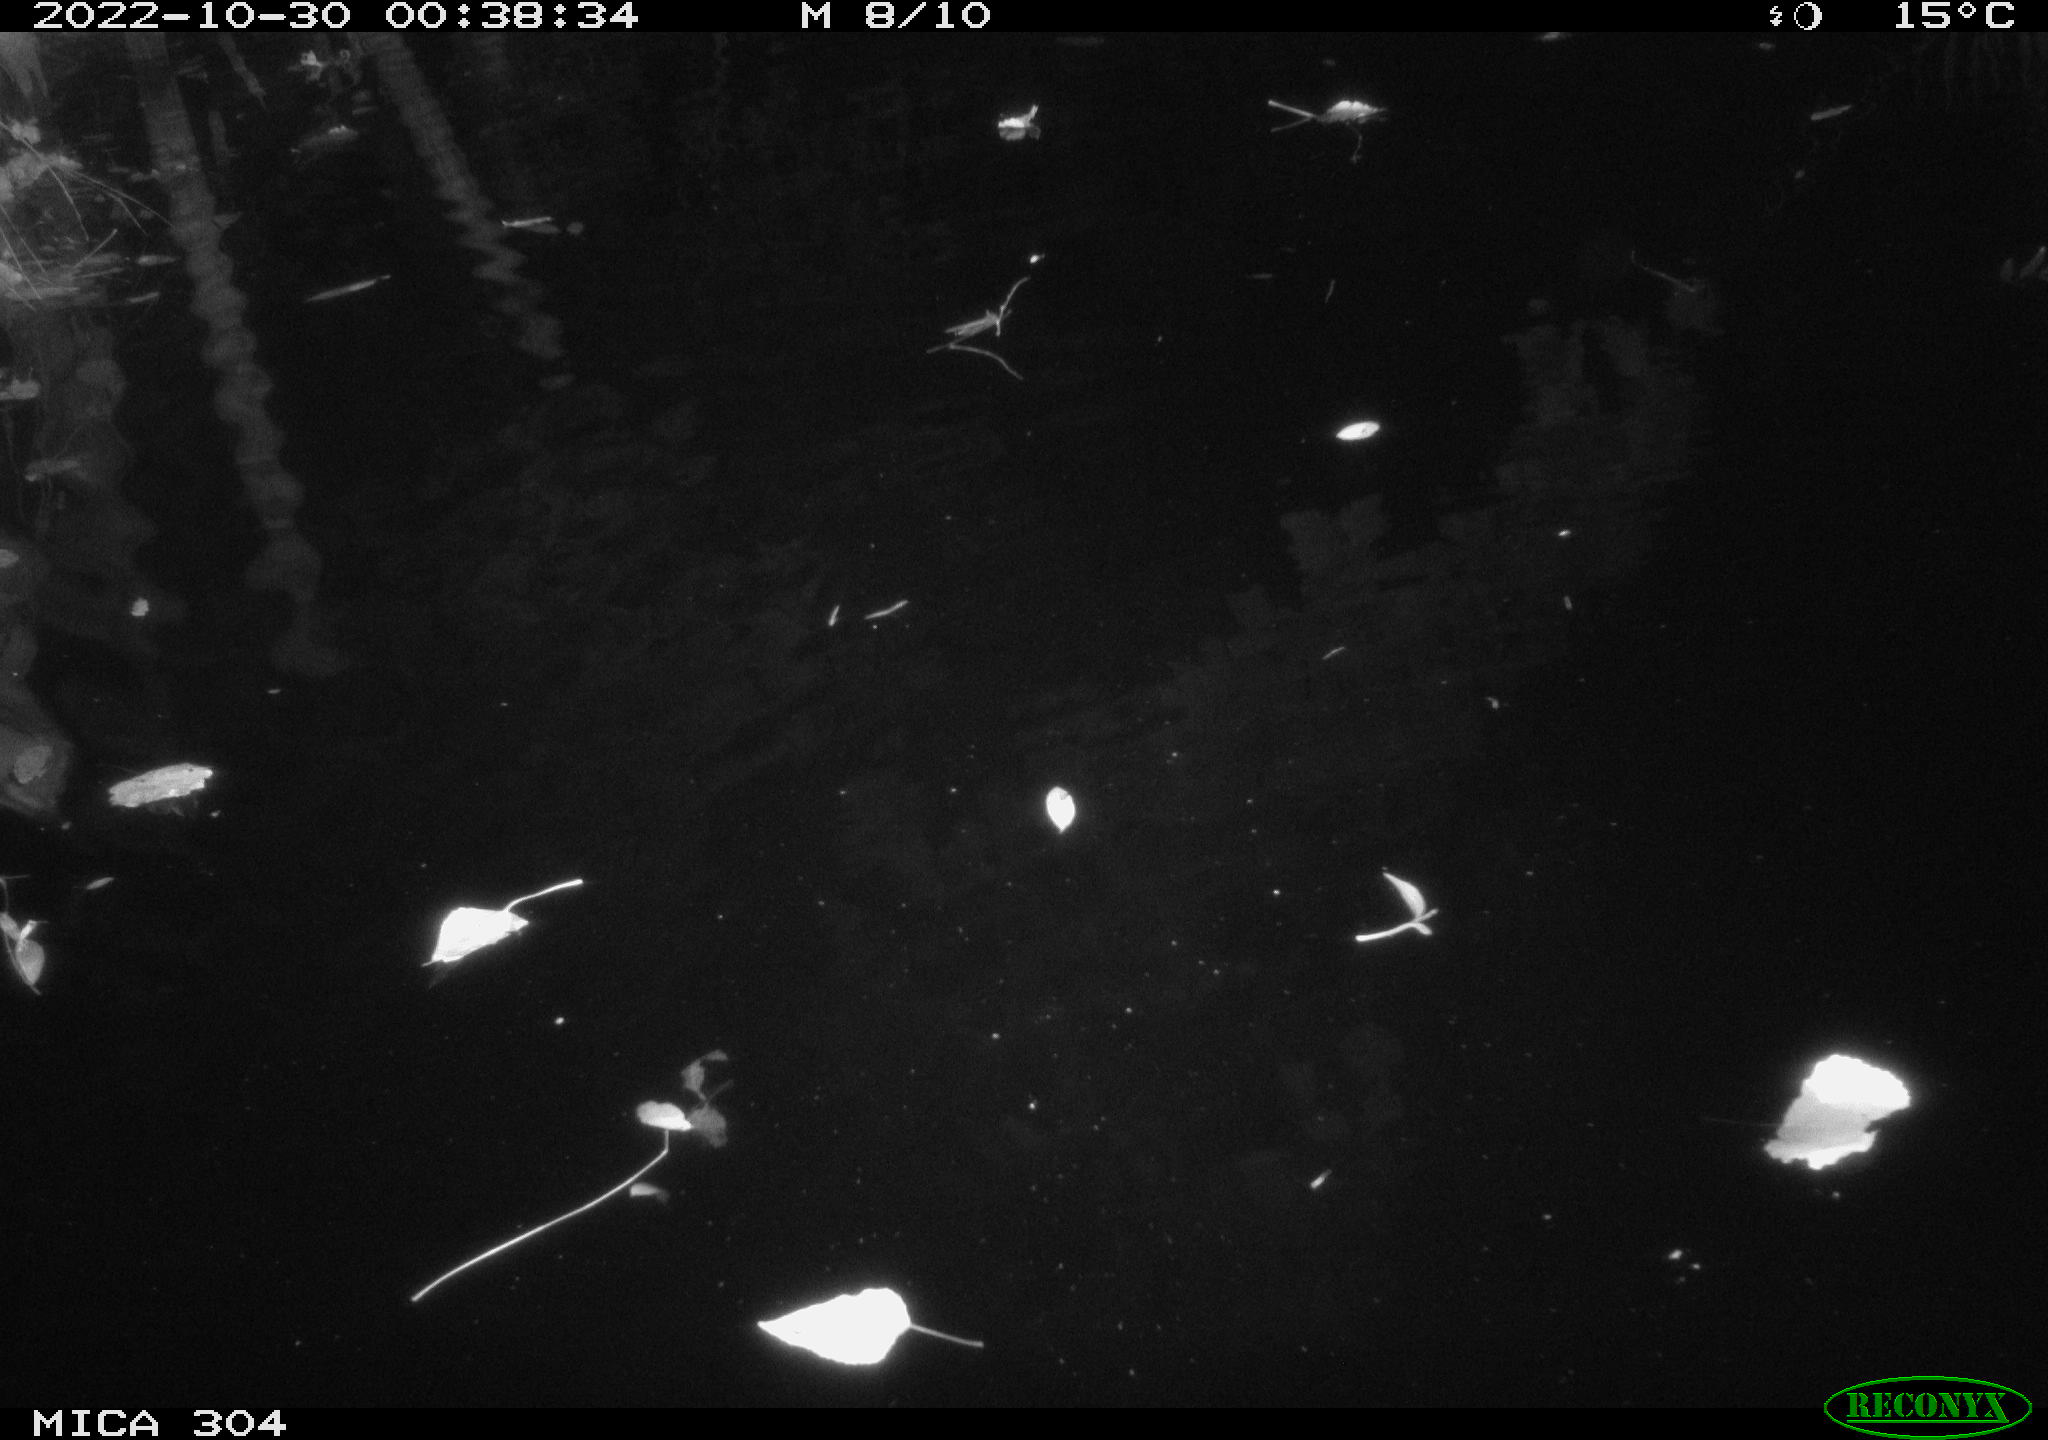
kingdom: Animalia
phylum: Chordata
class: Mammalia
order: Rodentia
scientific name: Rodentia
